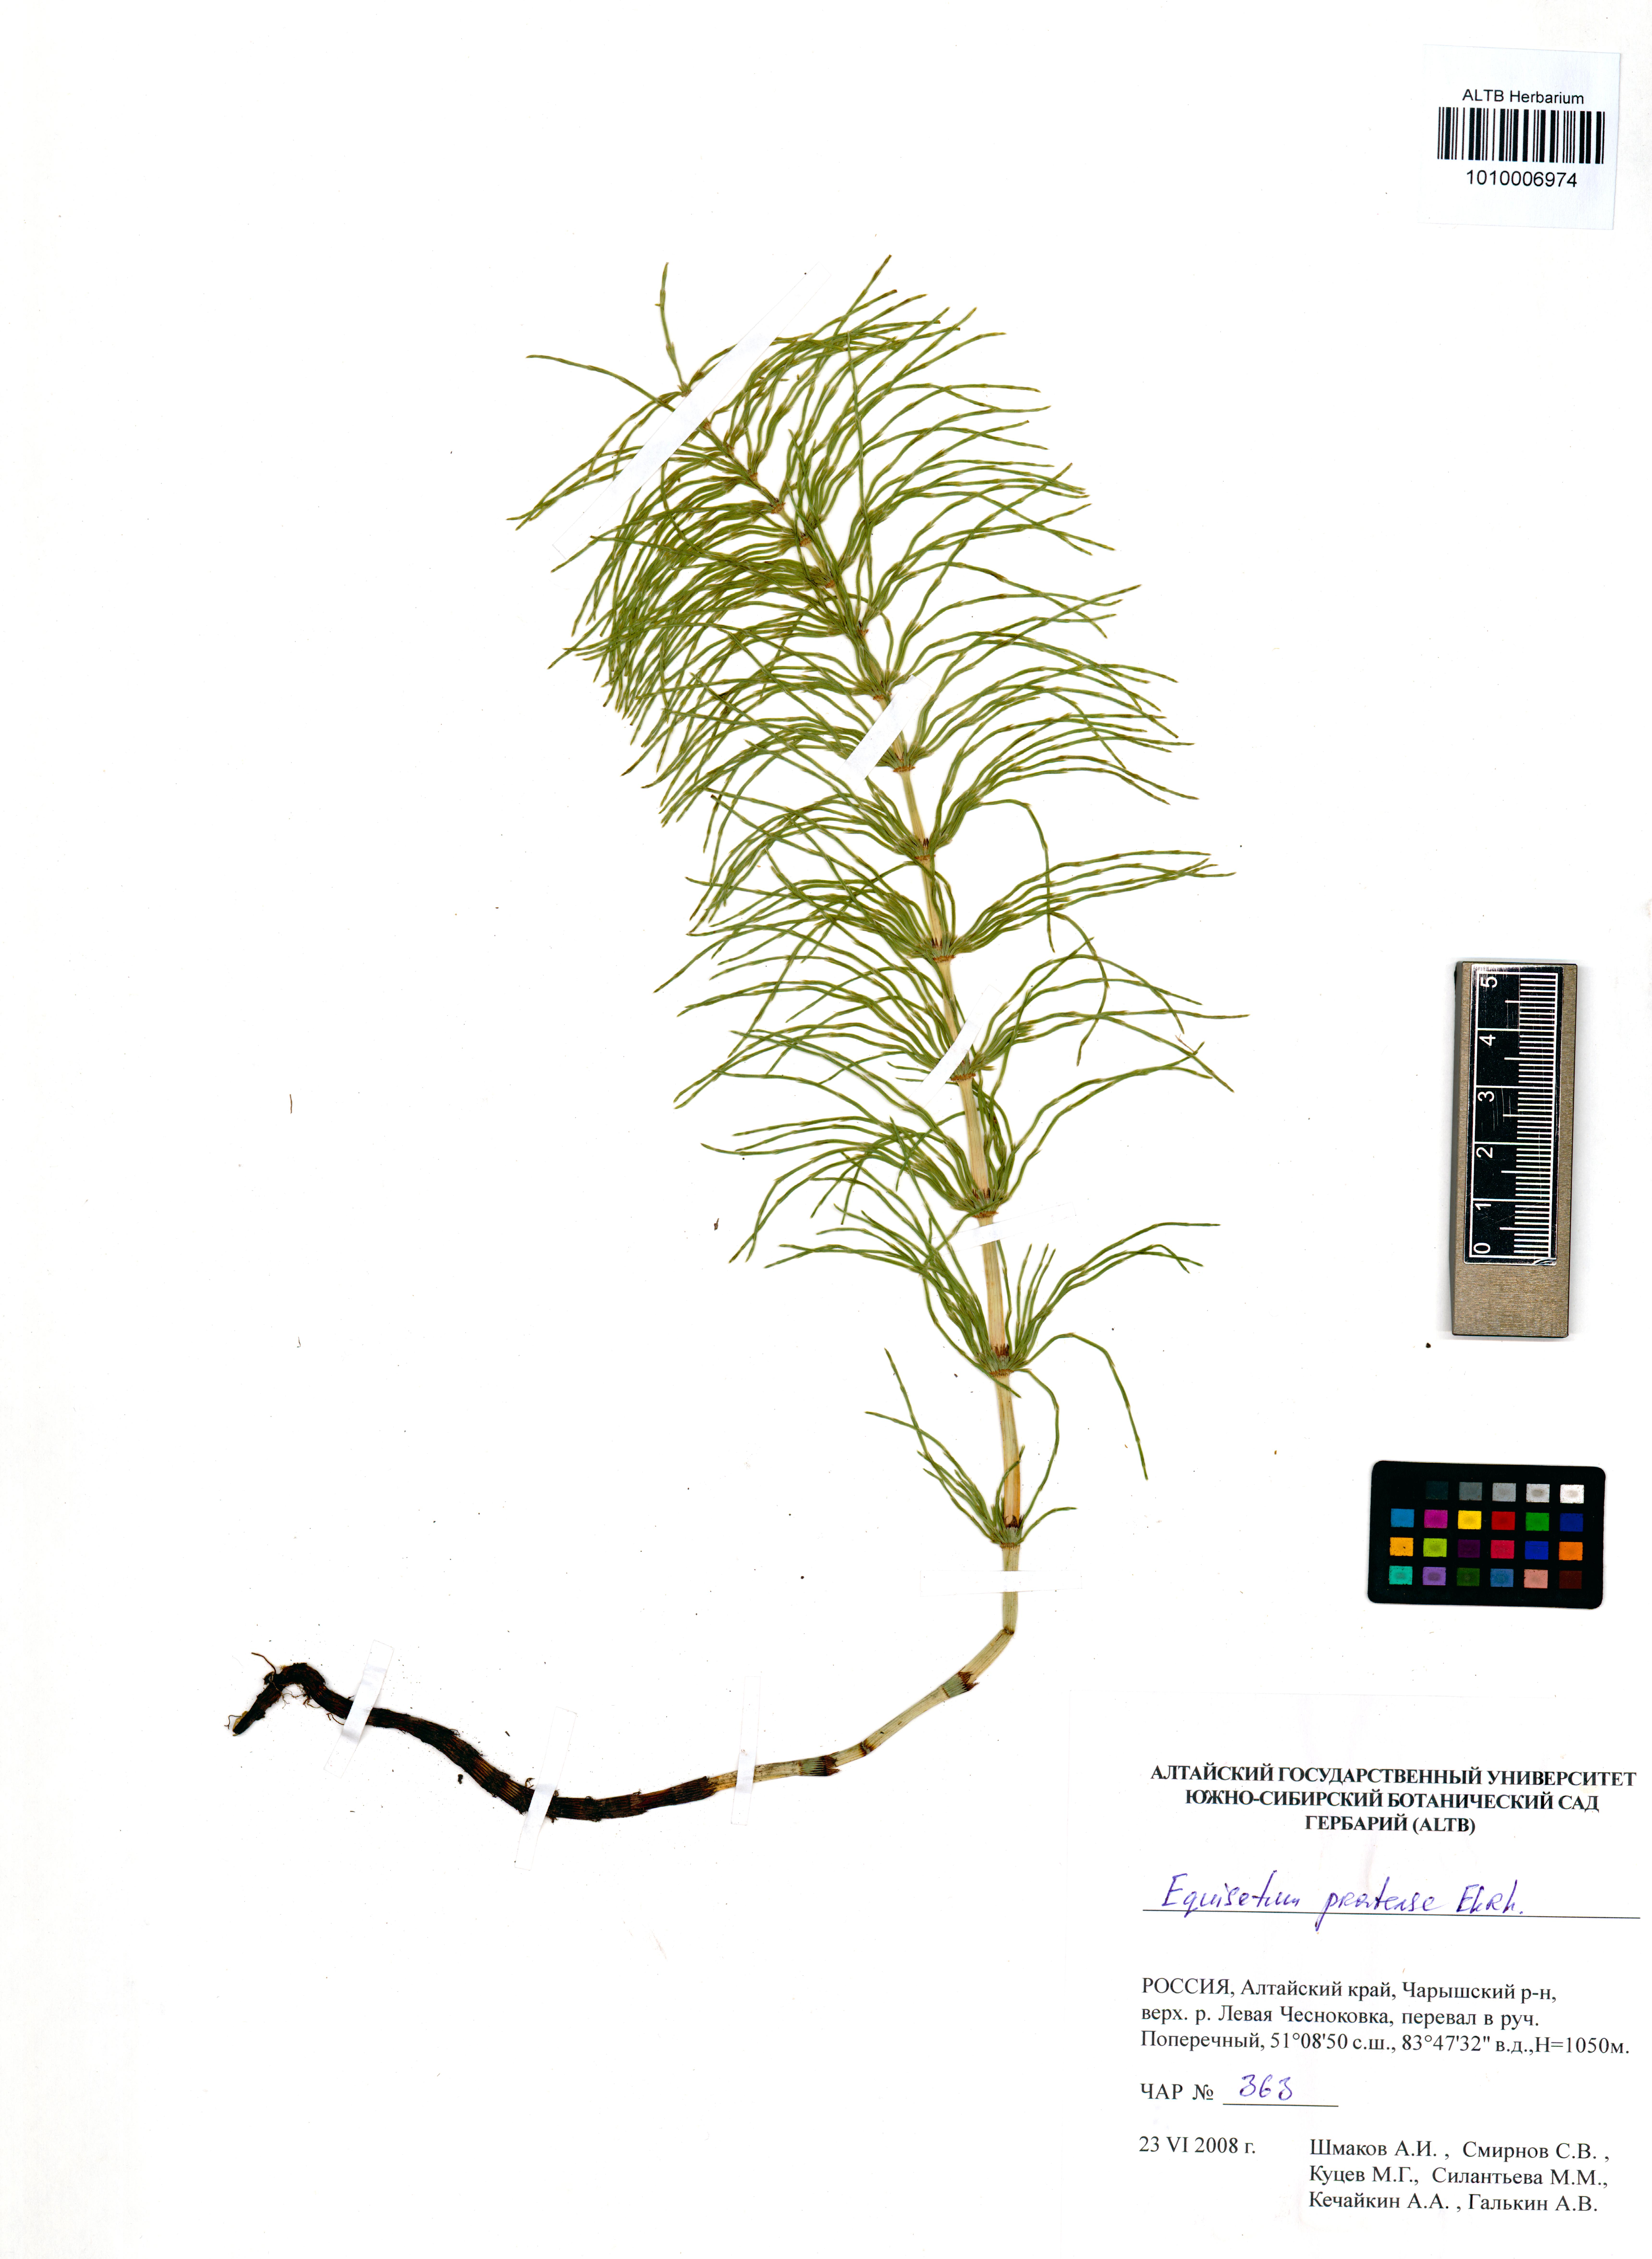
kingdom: Plantae
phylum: Tracheophyta
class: Polypodiopsida
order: Equisetales
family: Equisetaceae
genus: Equisetum
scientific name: Equisetum pratense
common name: Meadow horsetail
